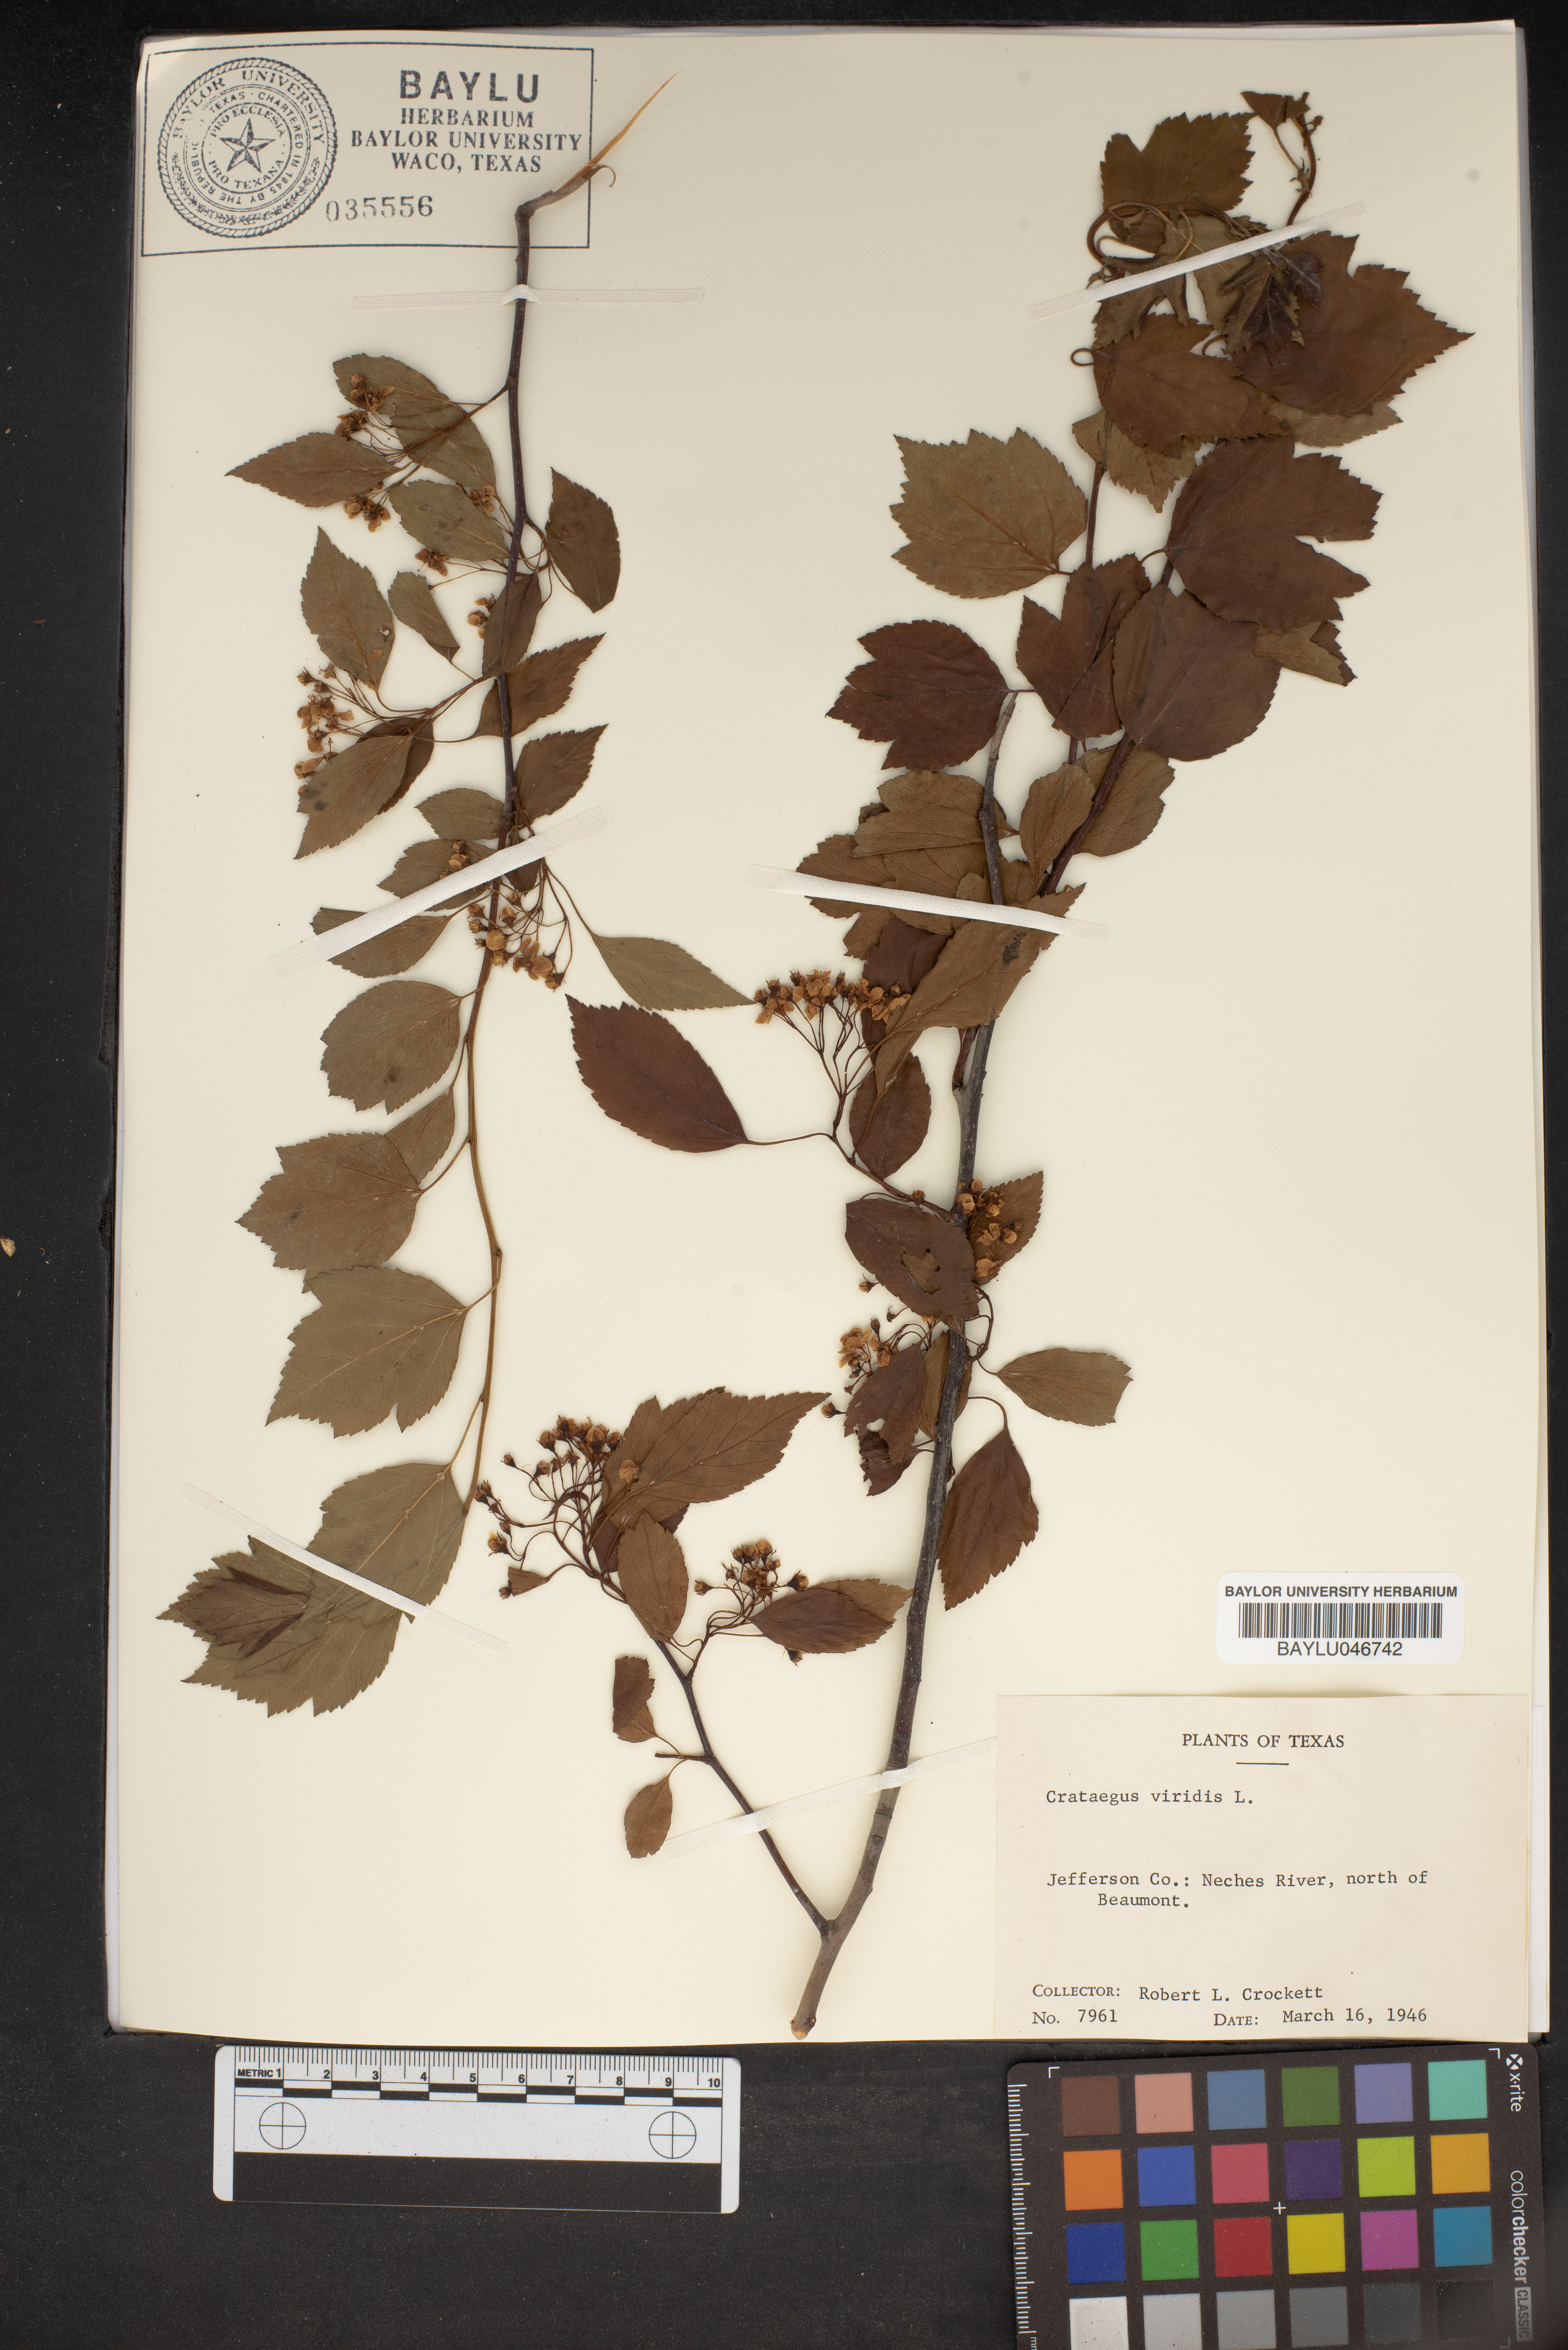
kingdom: Plantae
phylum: Tracheophyta
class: Magnoliopsida
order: Rosales
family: Rosaceae
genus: Crataegus
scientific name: Crataegus viridis
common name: Southernthorn
